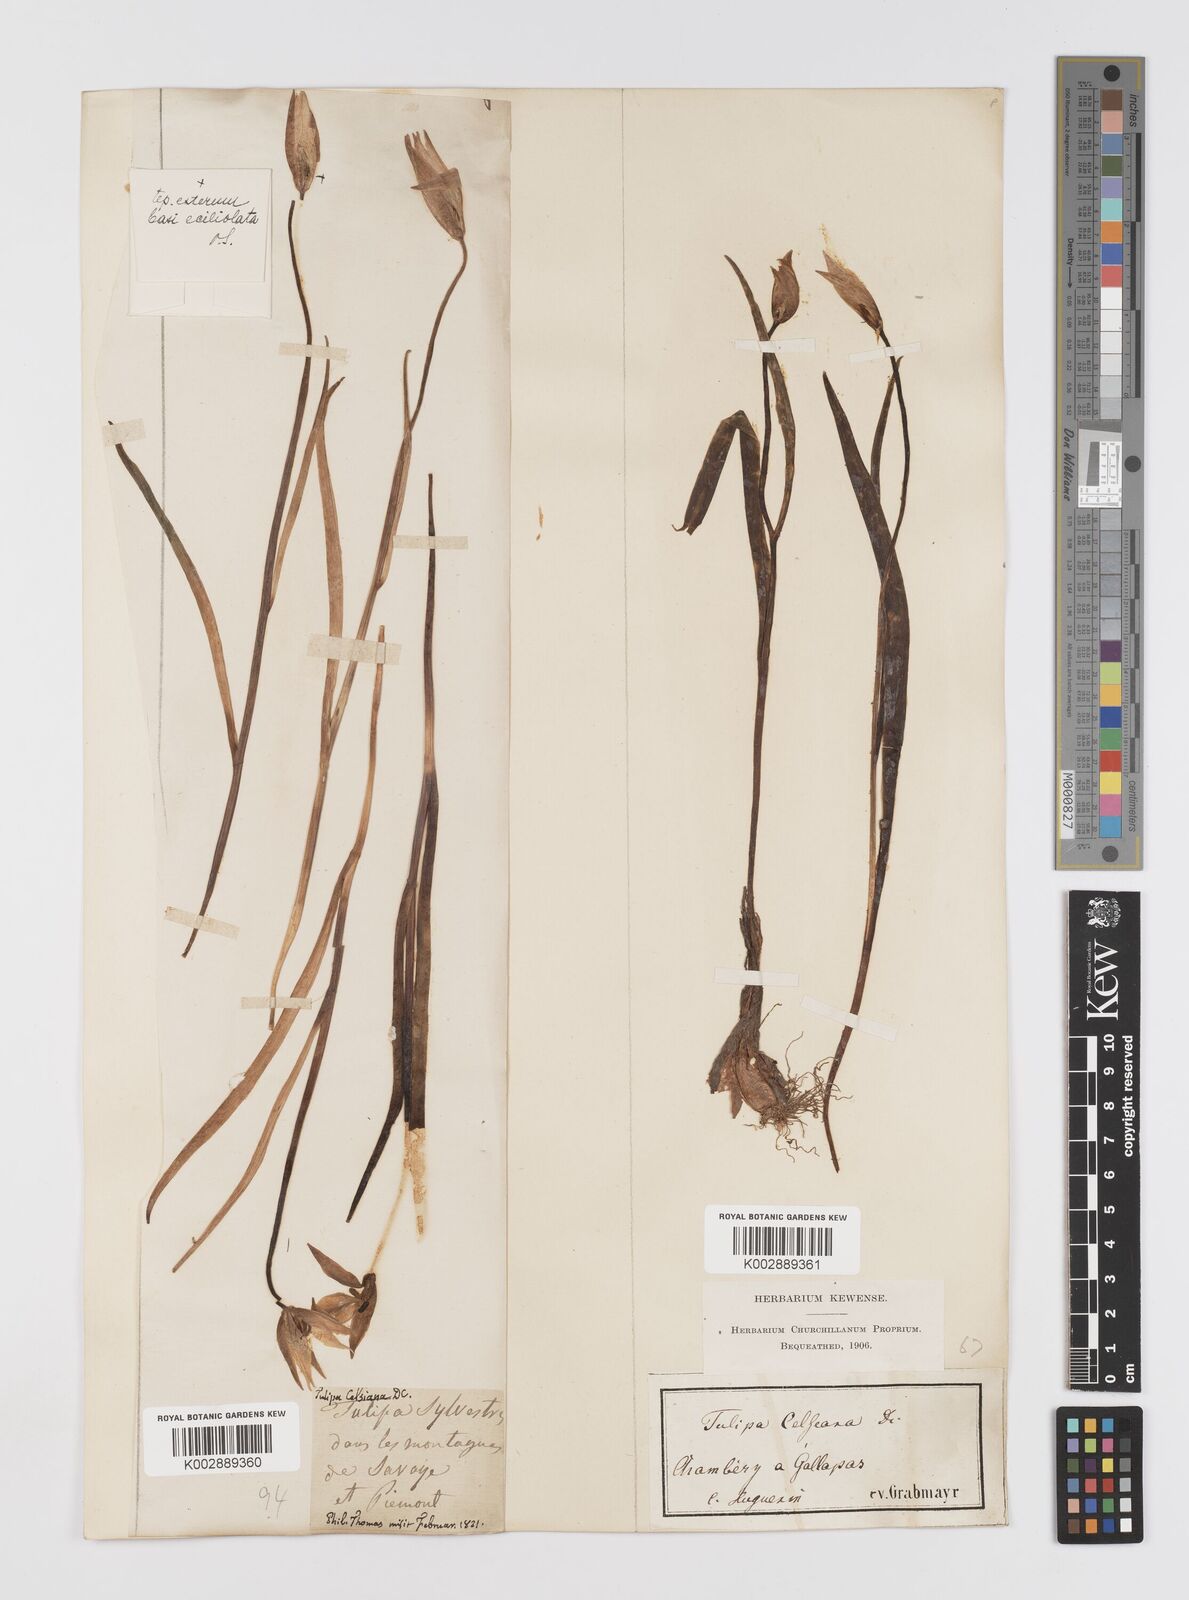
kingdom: Plantae
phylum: Tracheophyta
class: Liliopsida
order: Liliales
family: Liliaceae
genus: Tulipa
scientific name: Tulipa sylvestris
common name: Wild tulip
